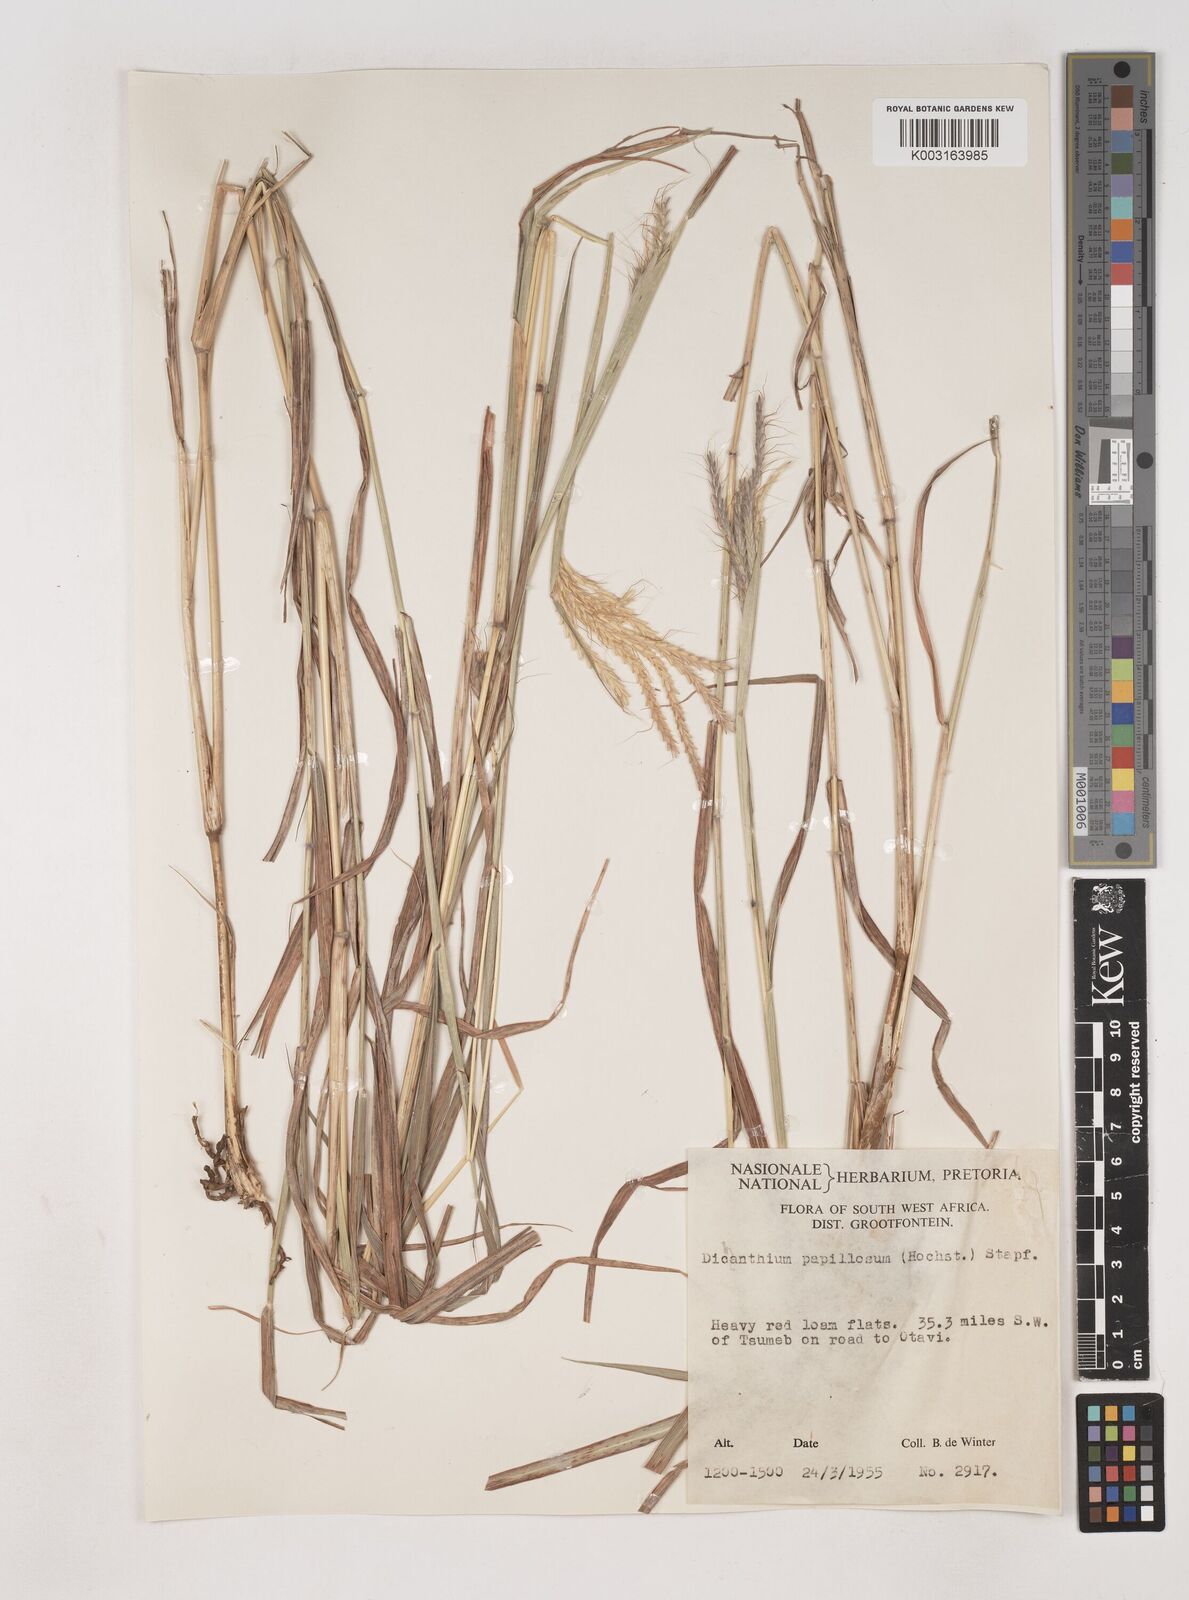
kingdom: Plantae
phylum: Tracheophyta
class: Liliopsida
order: Poales
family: Poaceae
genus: Dichanthium
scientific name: Dichanthium annulatum
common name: Kleberg's bluestem
